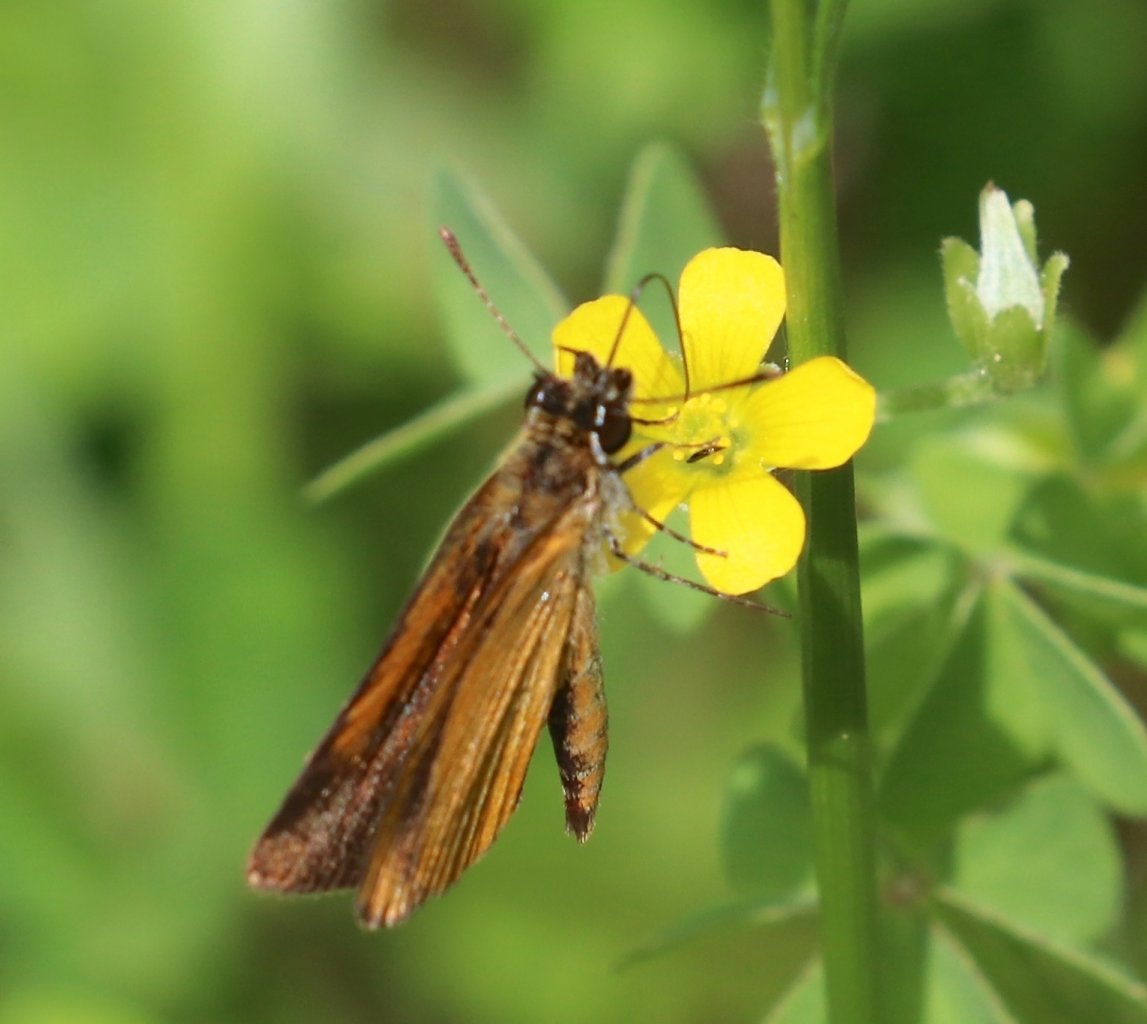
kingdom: Animalia
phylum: Arthropoda
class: Insecta
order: Lepidoptera
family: Hesperiidae
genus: Ancyloxypha
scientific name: Ancyloxypha numitor
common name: Least Skipper
